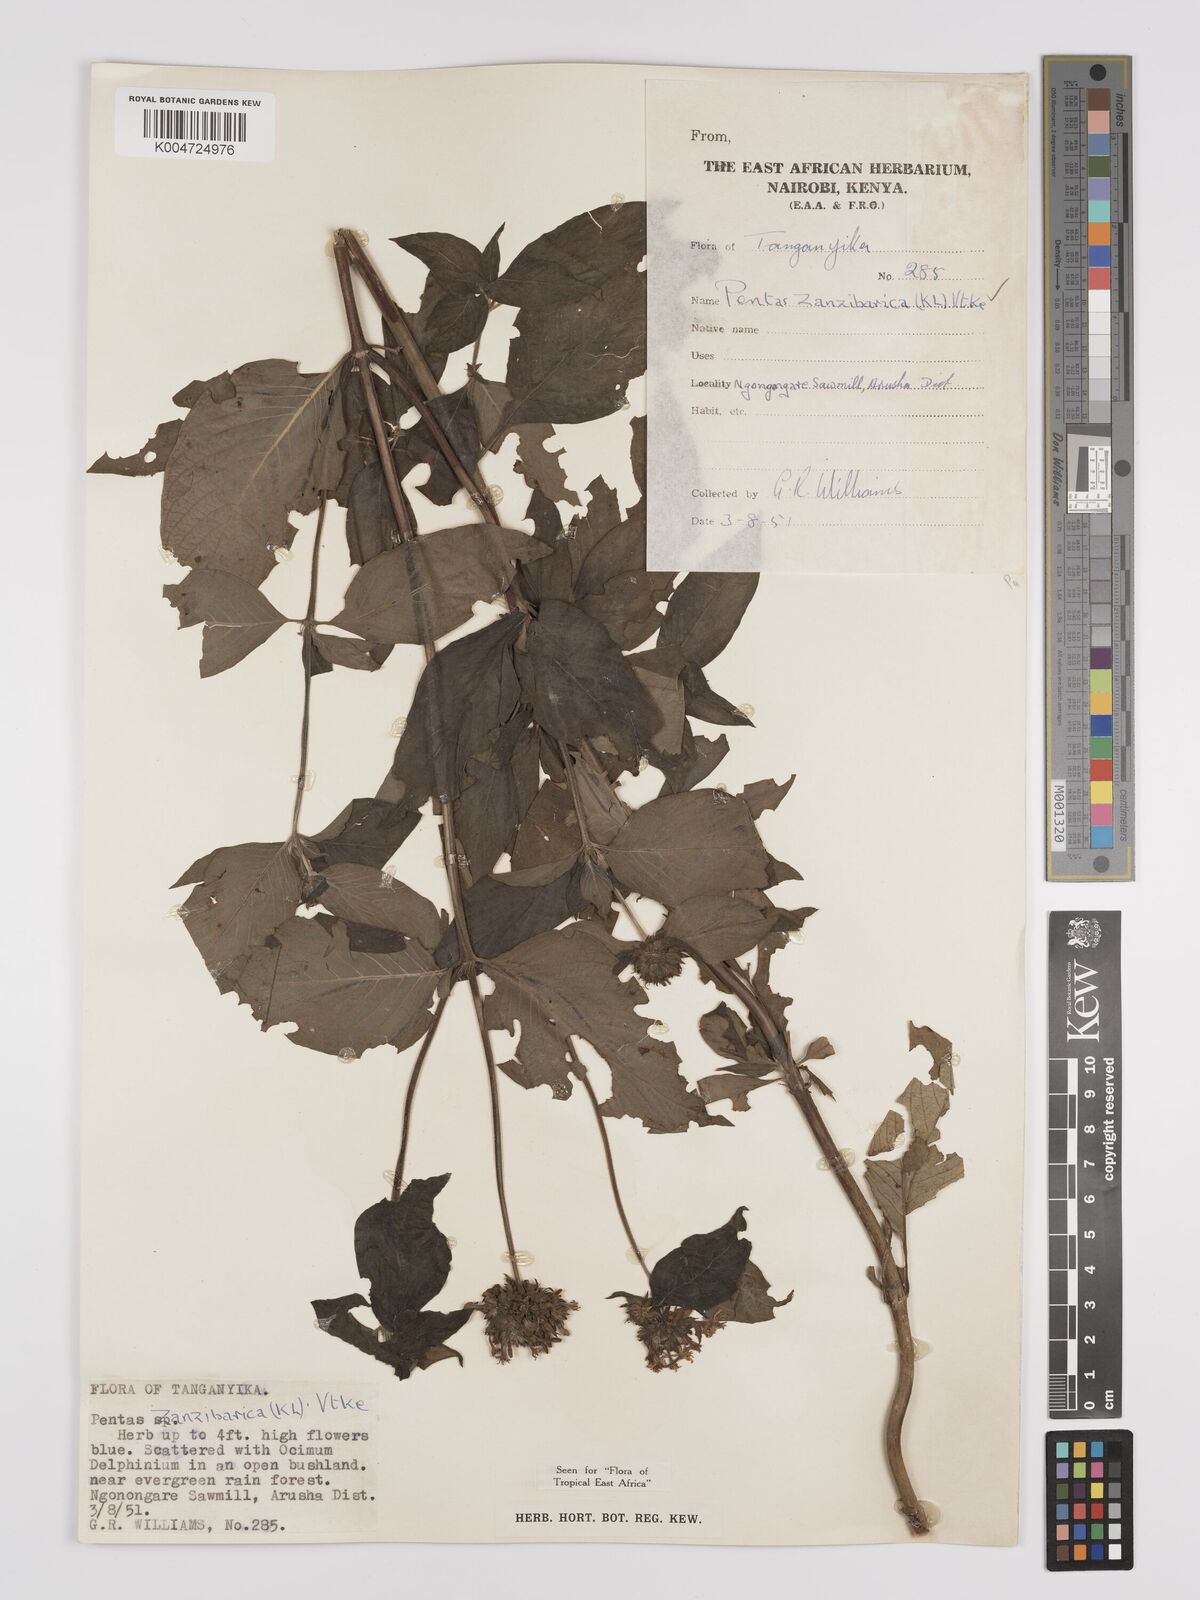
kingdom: Plantae
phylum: Tracheophyta
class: Magnoliopsida
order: Gentianales
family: Rubiaceae
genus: Pentas
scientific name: Pentas zanzibarica
